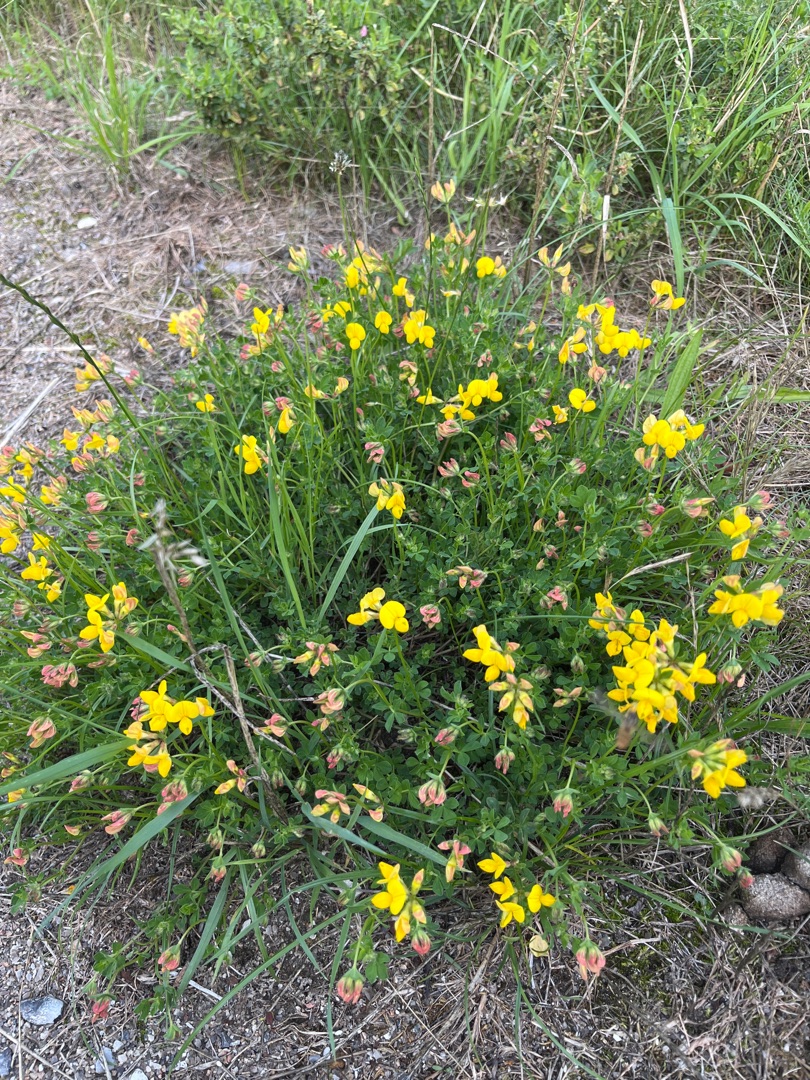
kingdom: Plantae
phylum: Tracheophyta
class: Magnoliopsida
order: Fabales
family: Fabaceae
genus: Lotus
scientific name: Lotus corniculatus
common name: Almindelig kællingetand
